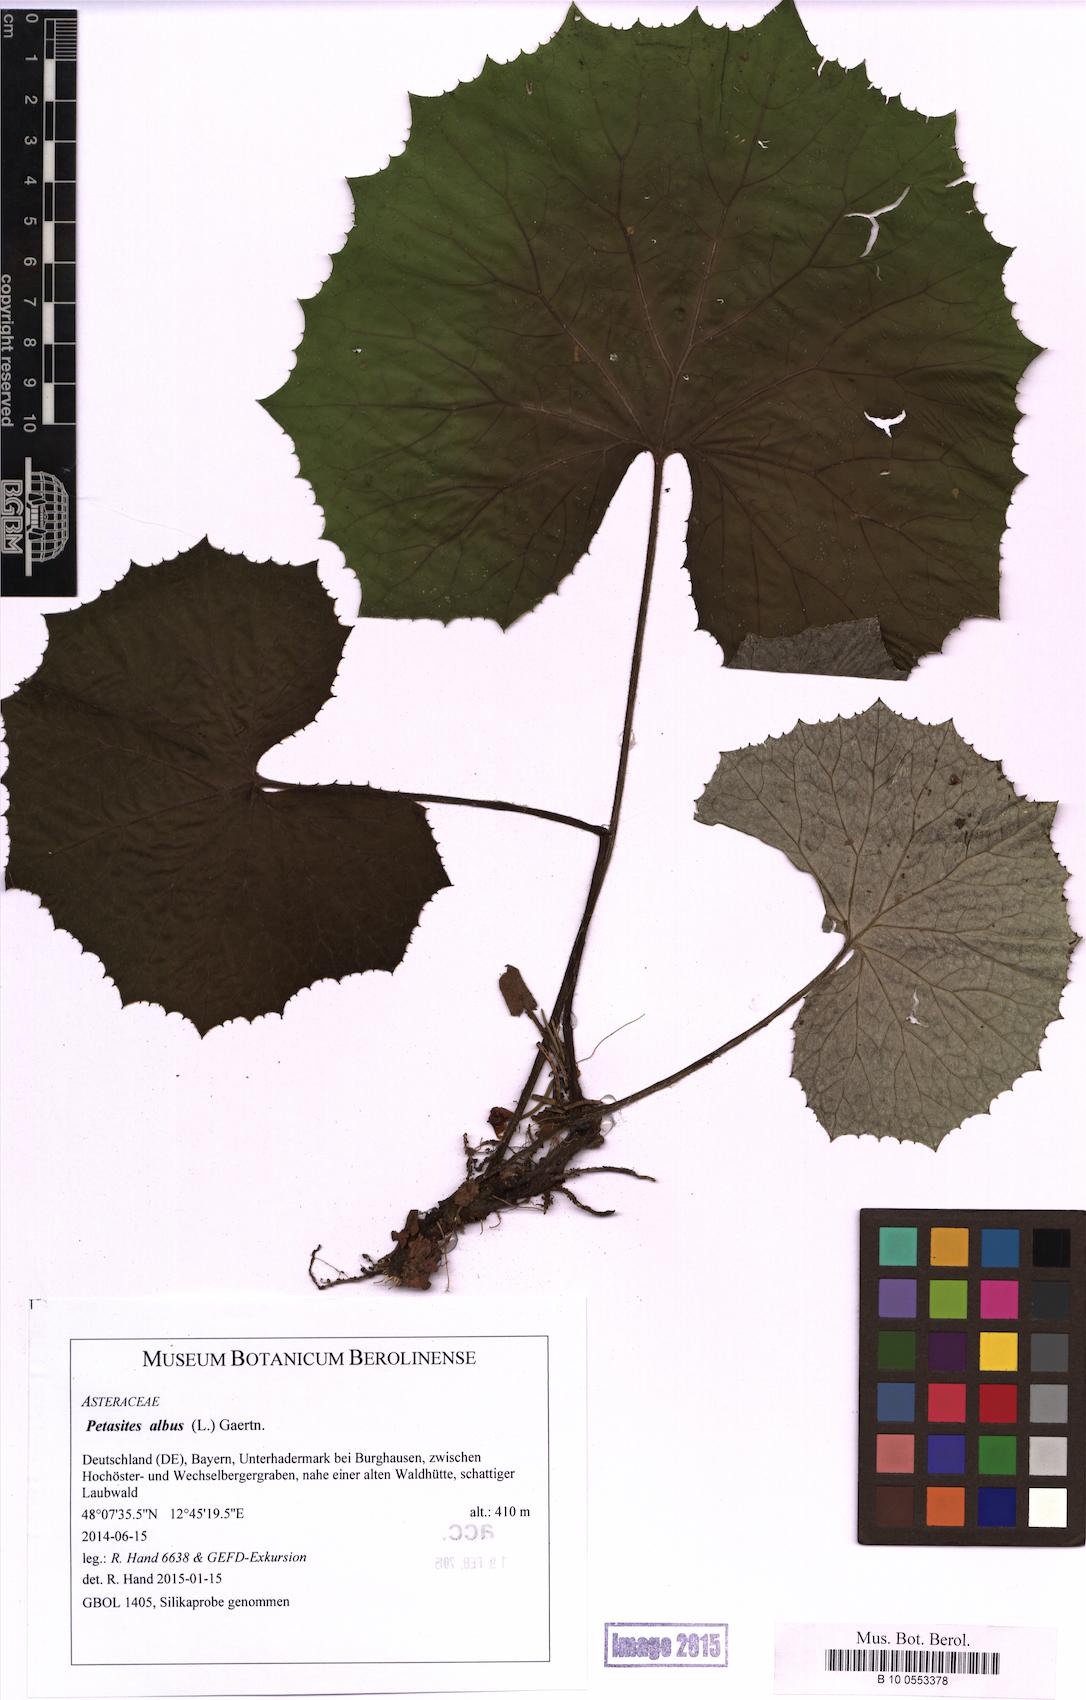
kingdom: Plantae
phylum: Tracheophyta
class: Magnoliopsida
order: Asterales
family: Asteraceae
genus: Petasites
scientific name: Petasites albus
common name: White butterbur
